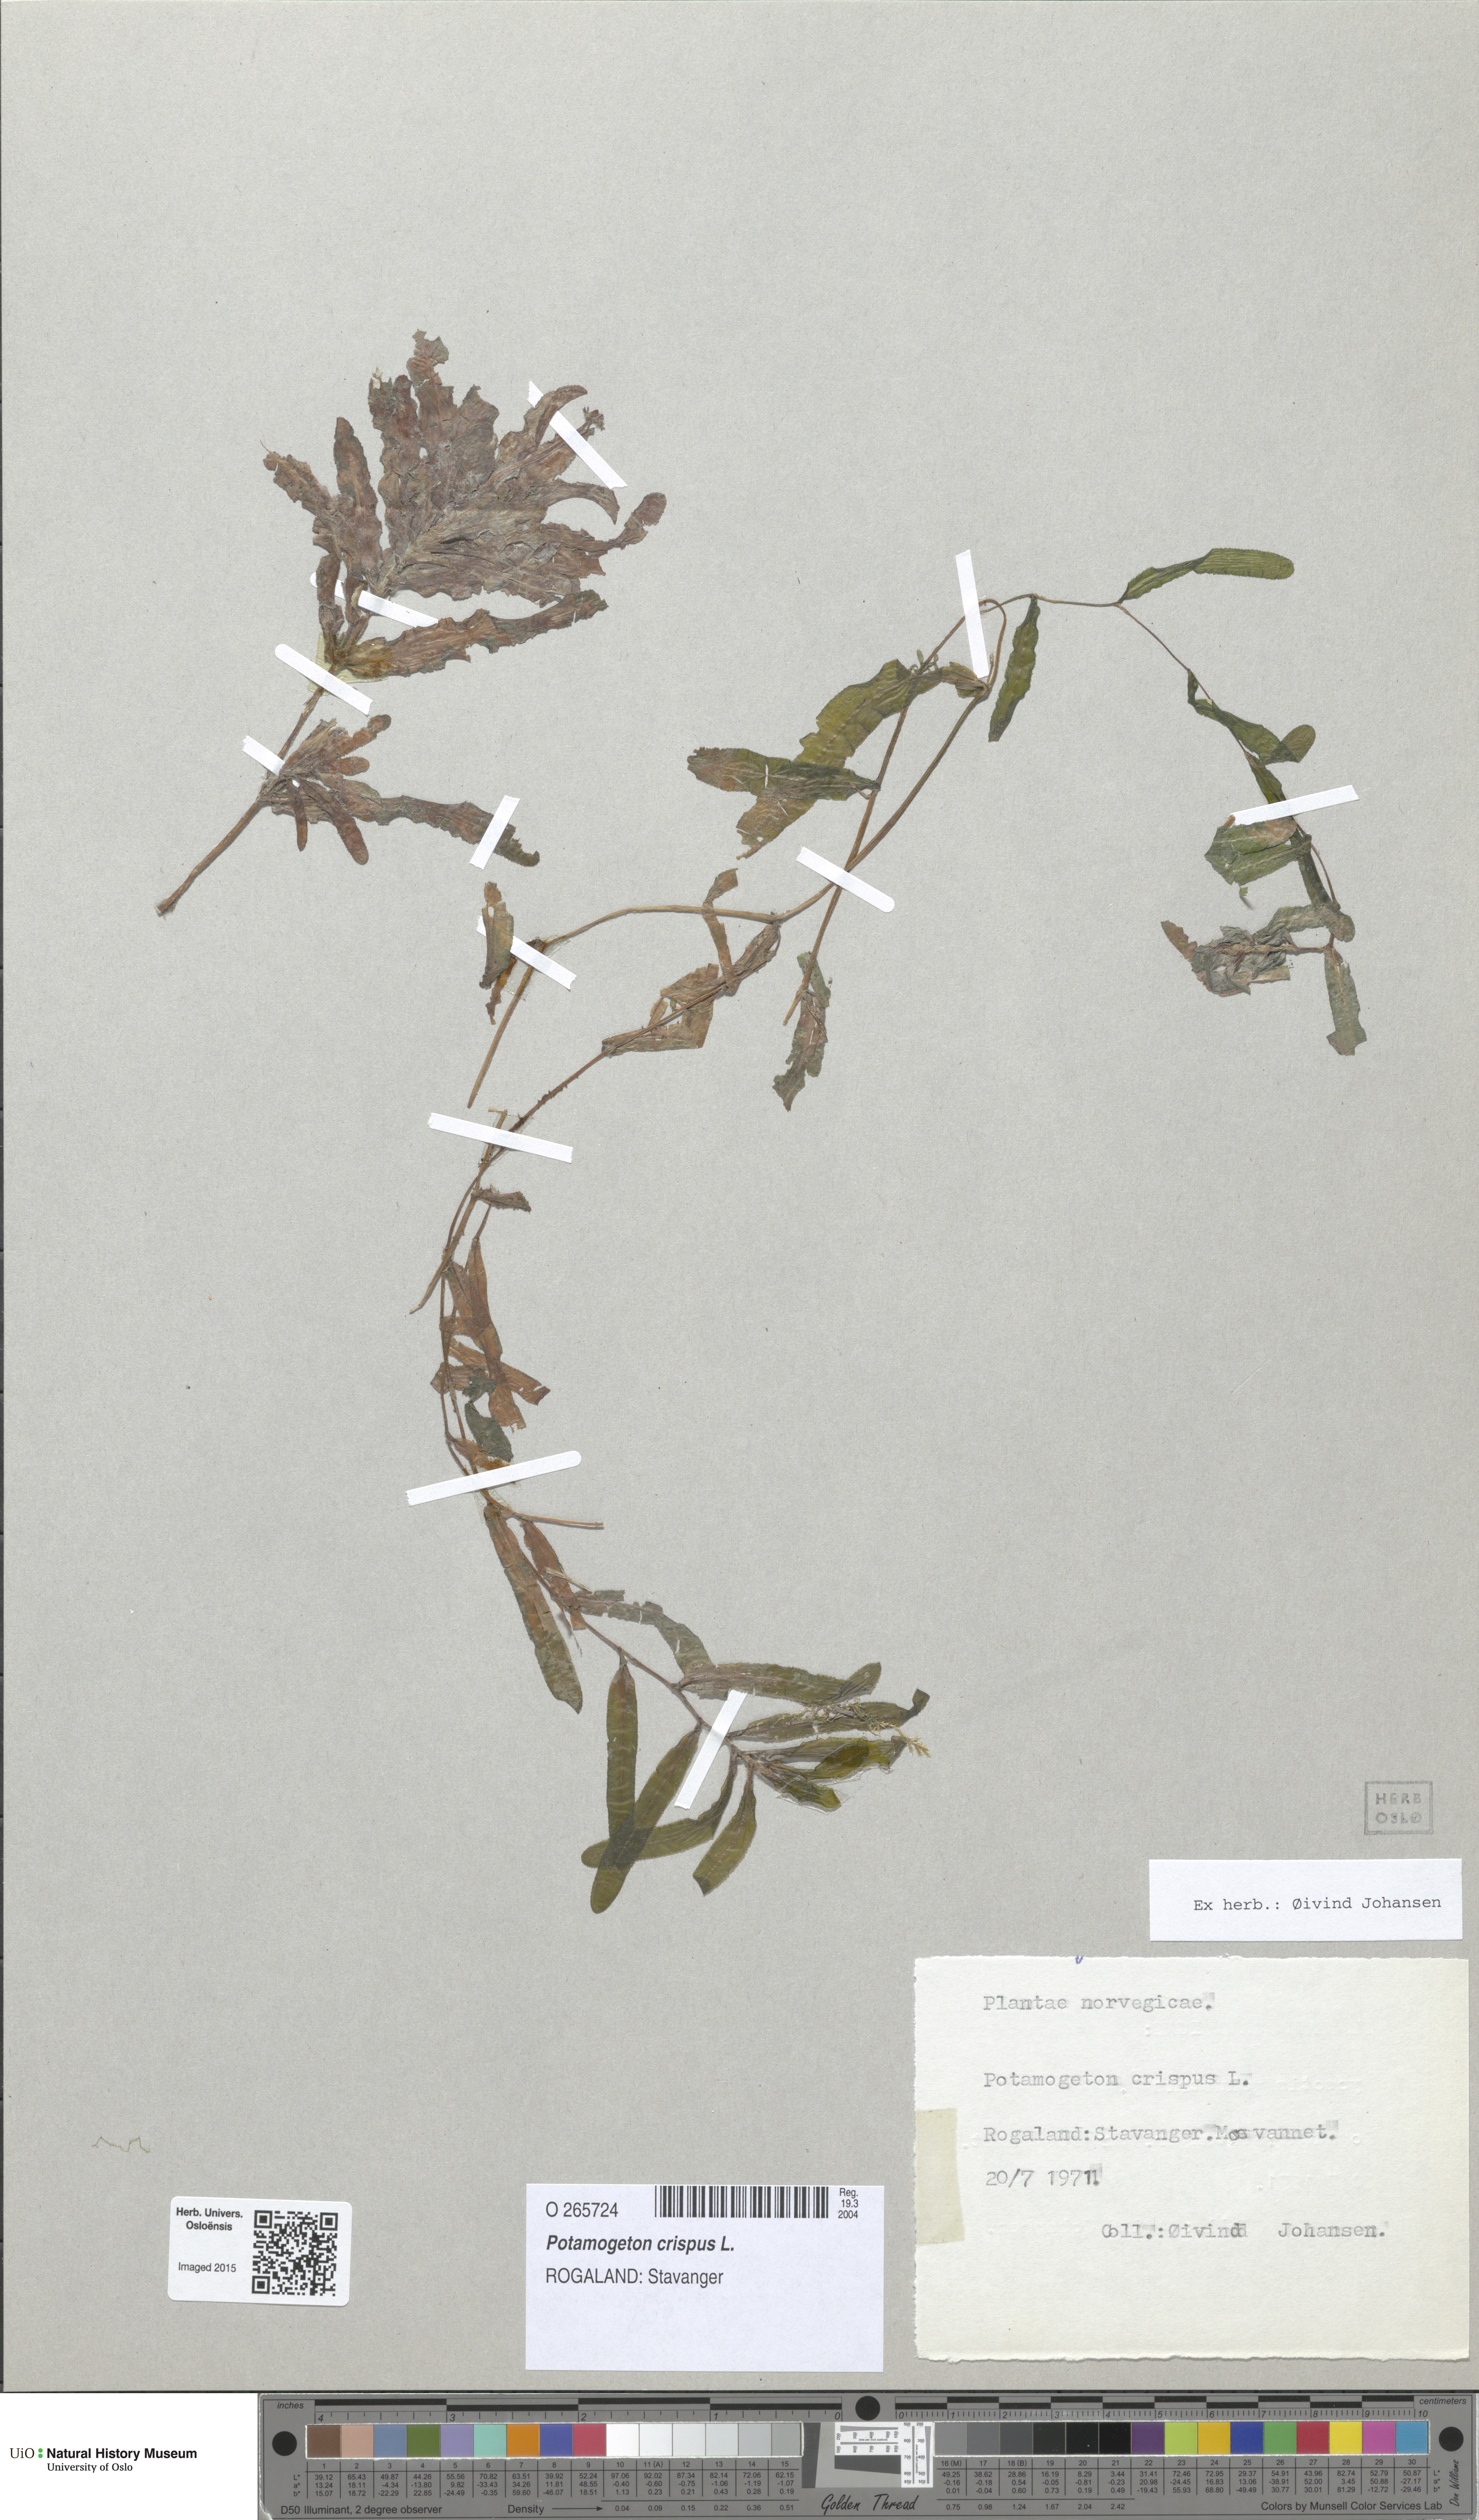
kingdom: Plantae
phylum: Tracheophyta
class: Liliopsida
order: Alismatales
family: Potamogetonaceae
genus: Potamogeton
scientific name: Potamogeton crispus
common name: Curled pondweed
